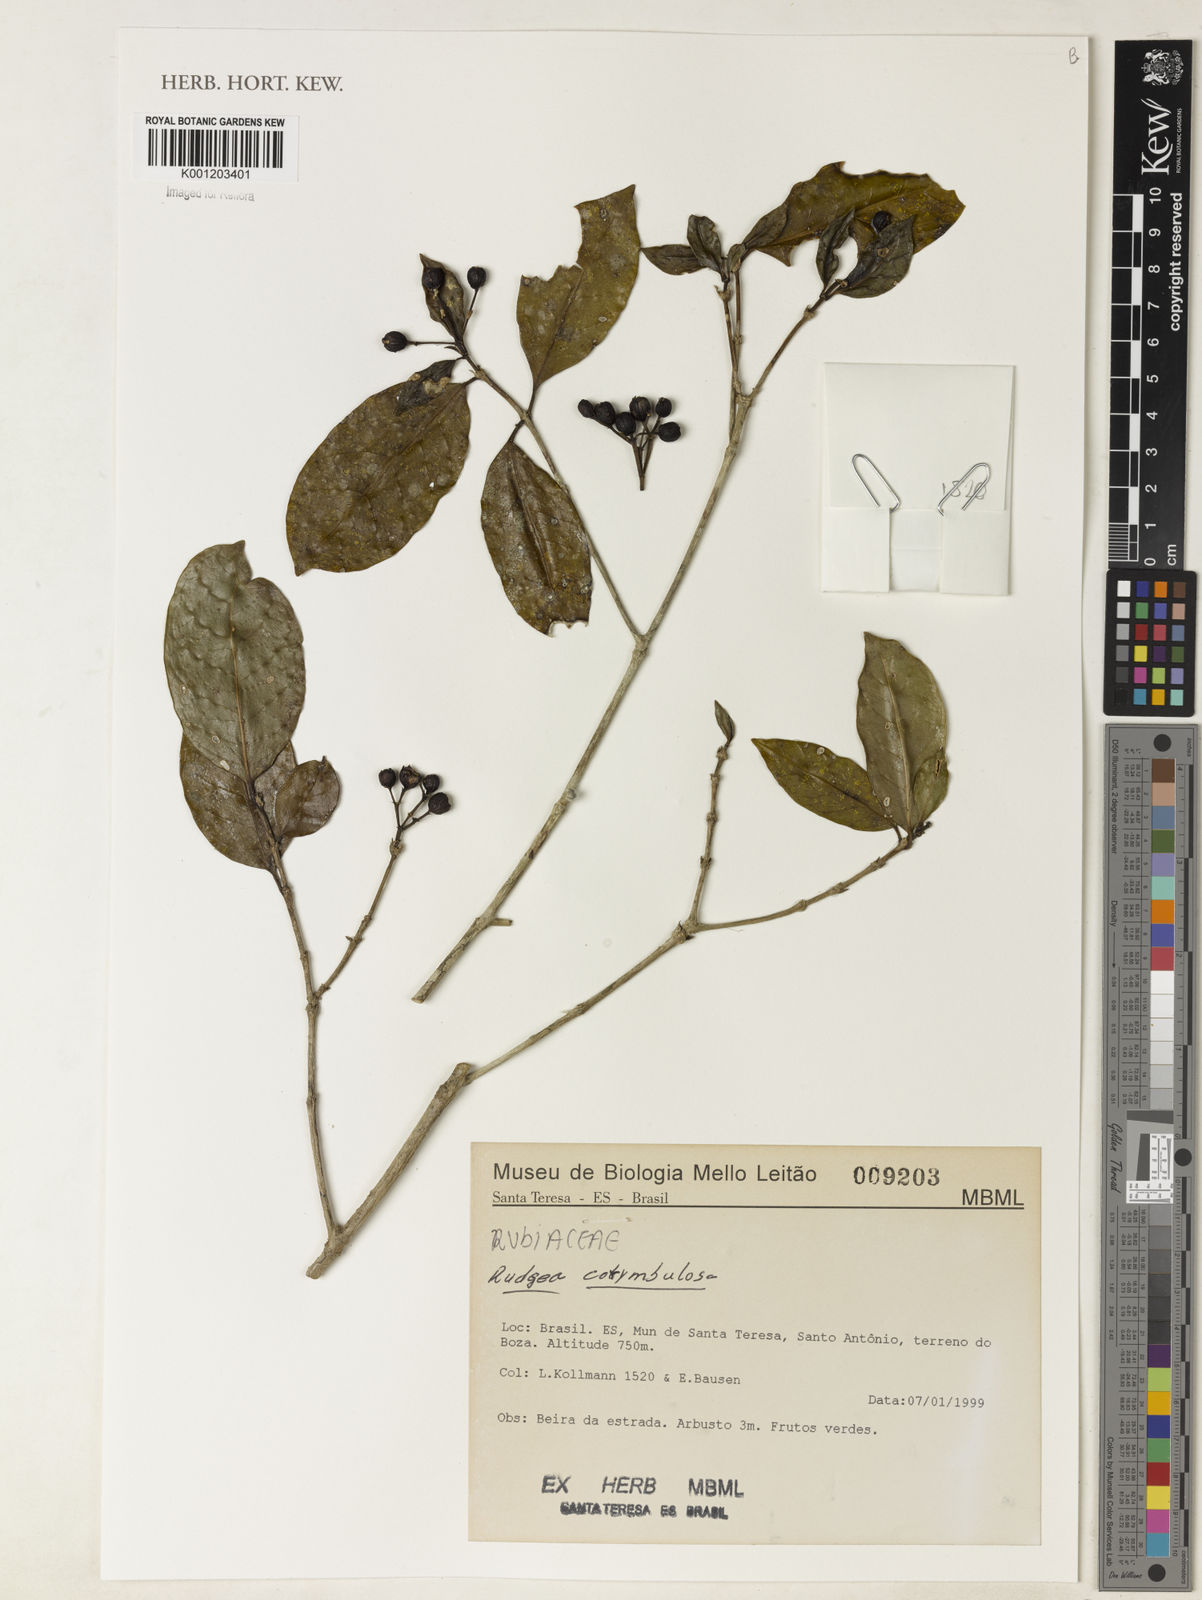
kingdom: Plantae
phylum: Tracheophyta
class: Magnoliopsida
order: Gentianales
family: Rubiaceae
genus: Rudgea
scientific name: Rudgea corymbulosa
